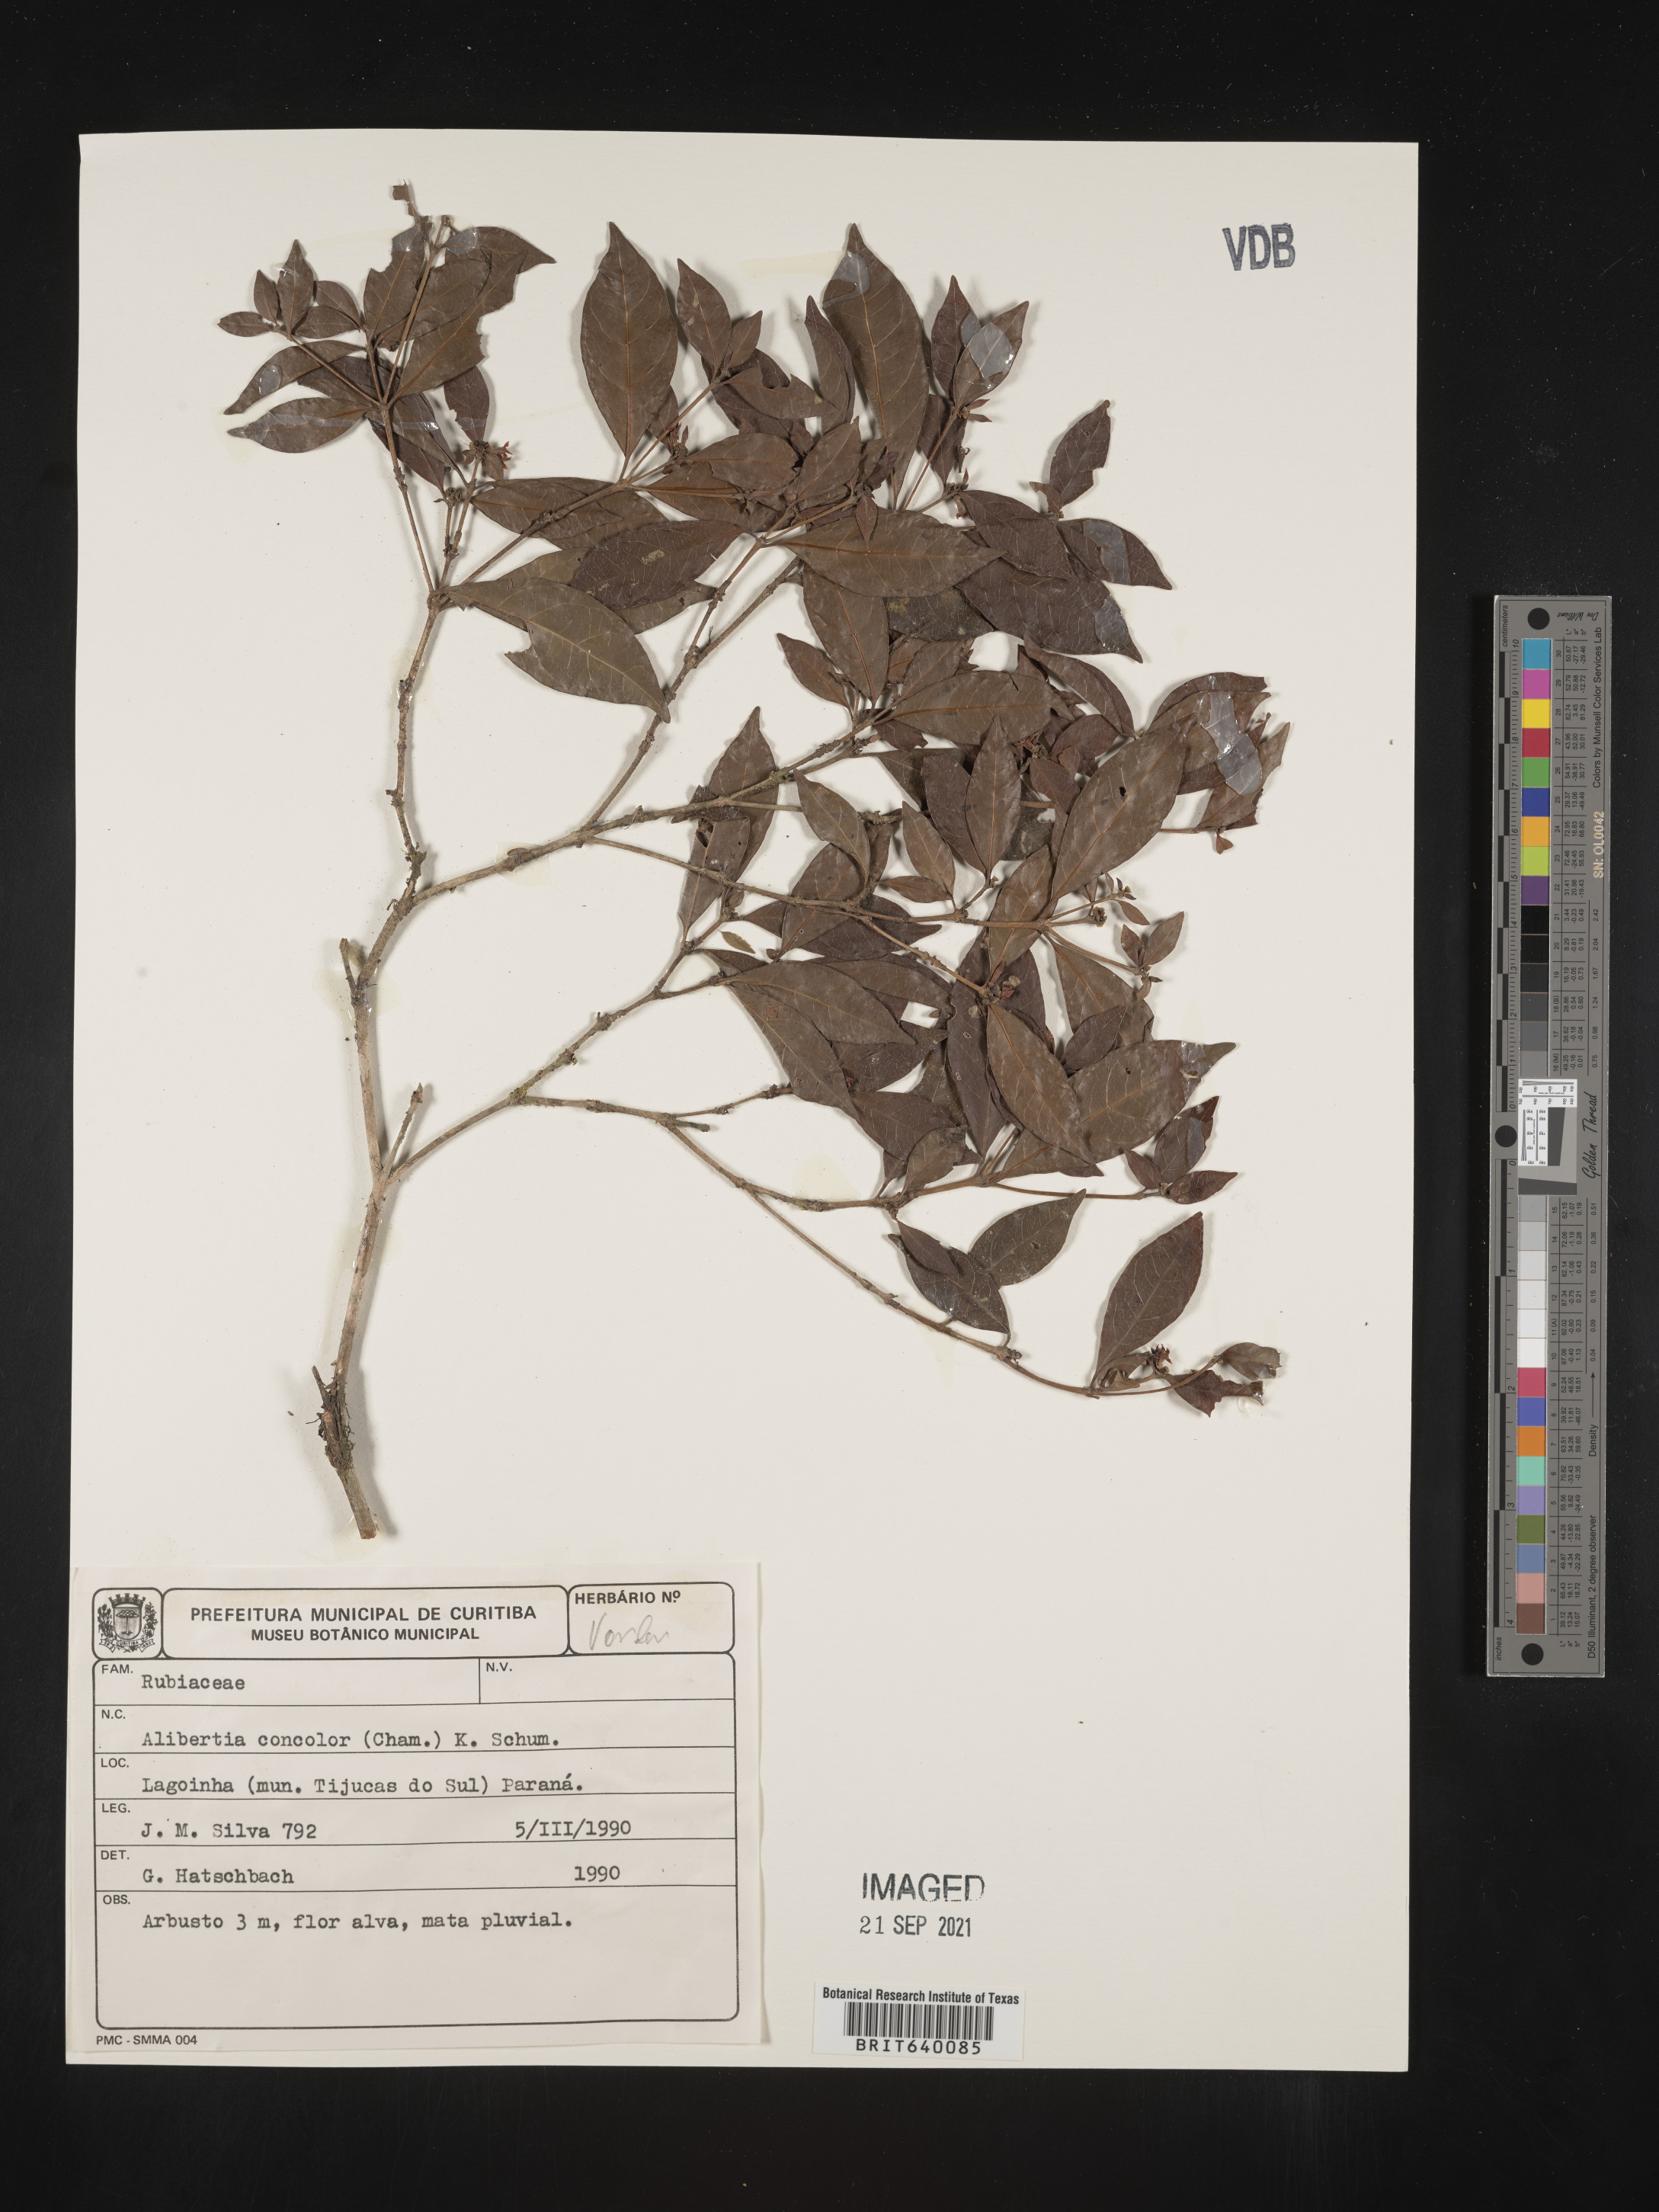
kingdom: Plantae
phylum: Tracheophyta
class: Magnoliopsida
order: Gentianales
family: Rubiaceae
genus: Alibertia
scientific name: Alibertia
